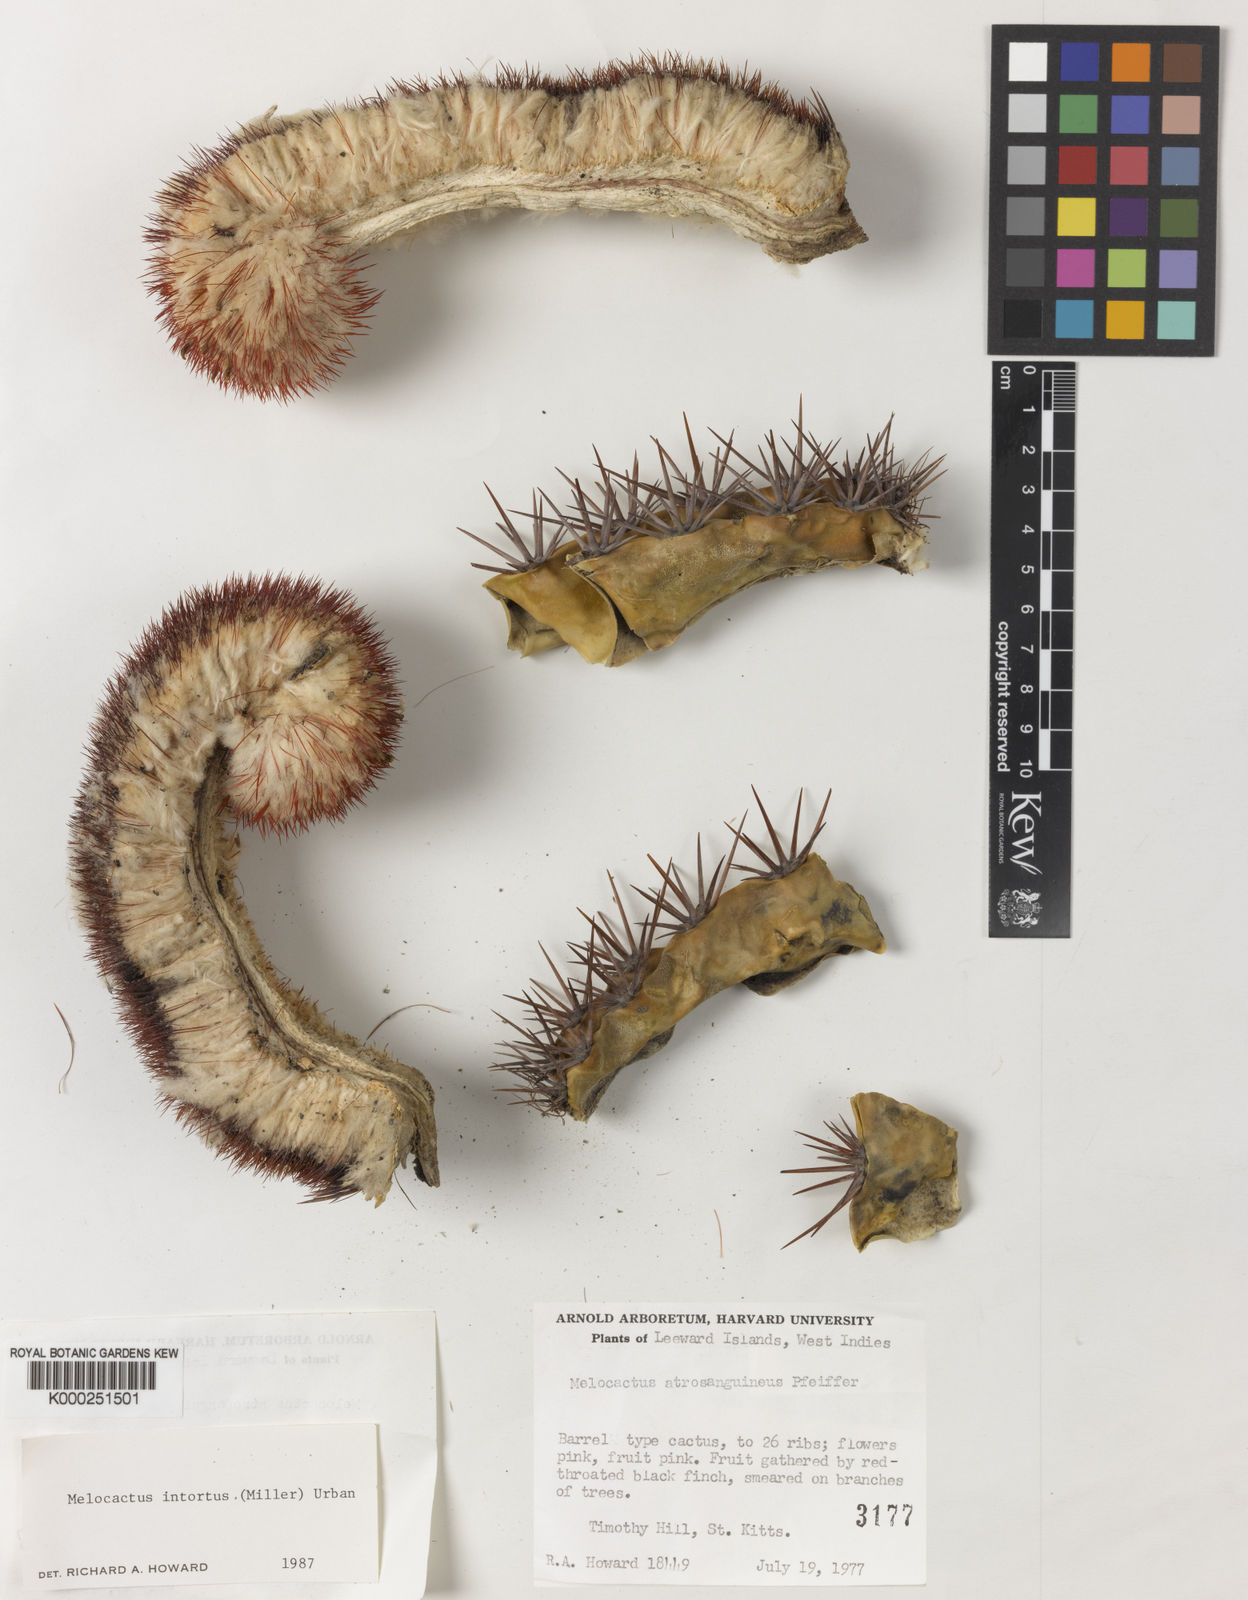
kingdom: Plantae
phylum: Tracheophyta
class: Magnoliopsida
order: Caryophyllales
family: Cactaceae
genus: Melocactus
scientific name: Melocactus
